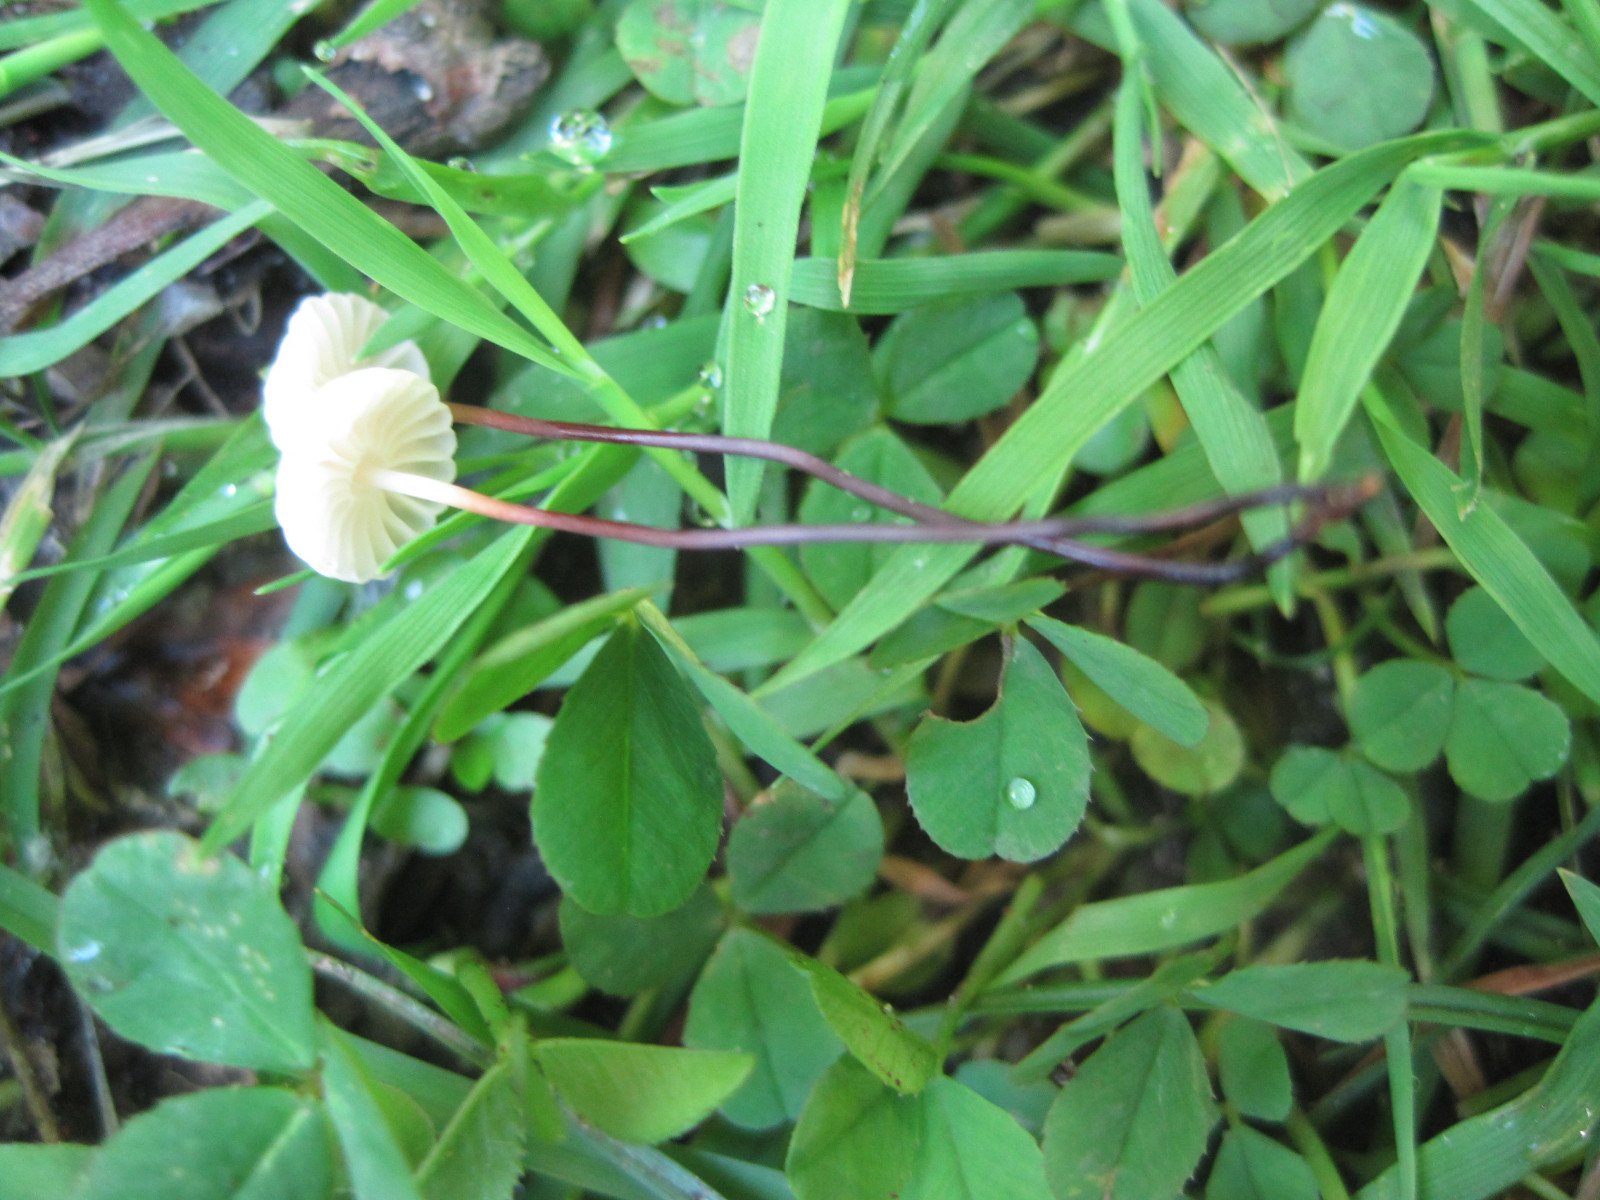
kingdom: Fungi
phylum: Basidiomycota
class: Agaricomycetes
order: Agaricales
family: Marasmiaceae
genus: Marasmius
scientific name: Marasmius rotula
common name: hjul-bruskhat
